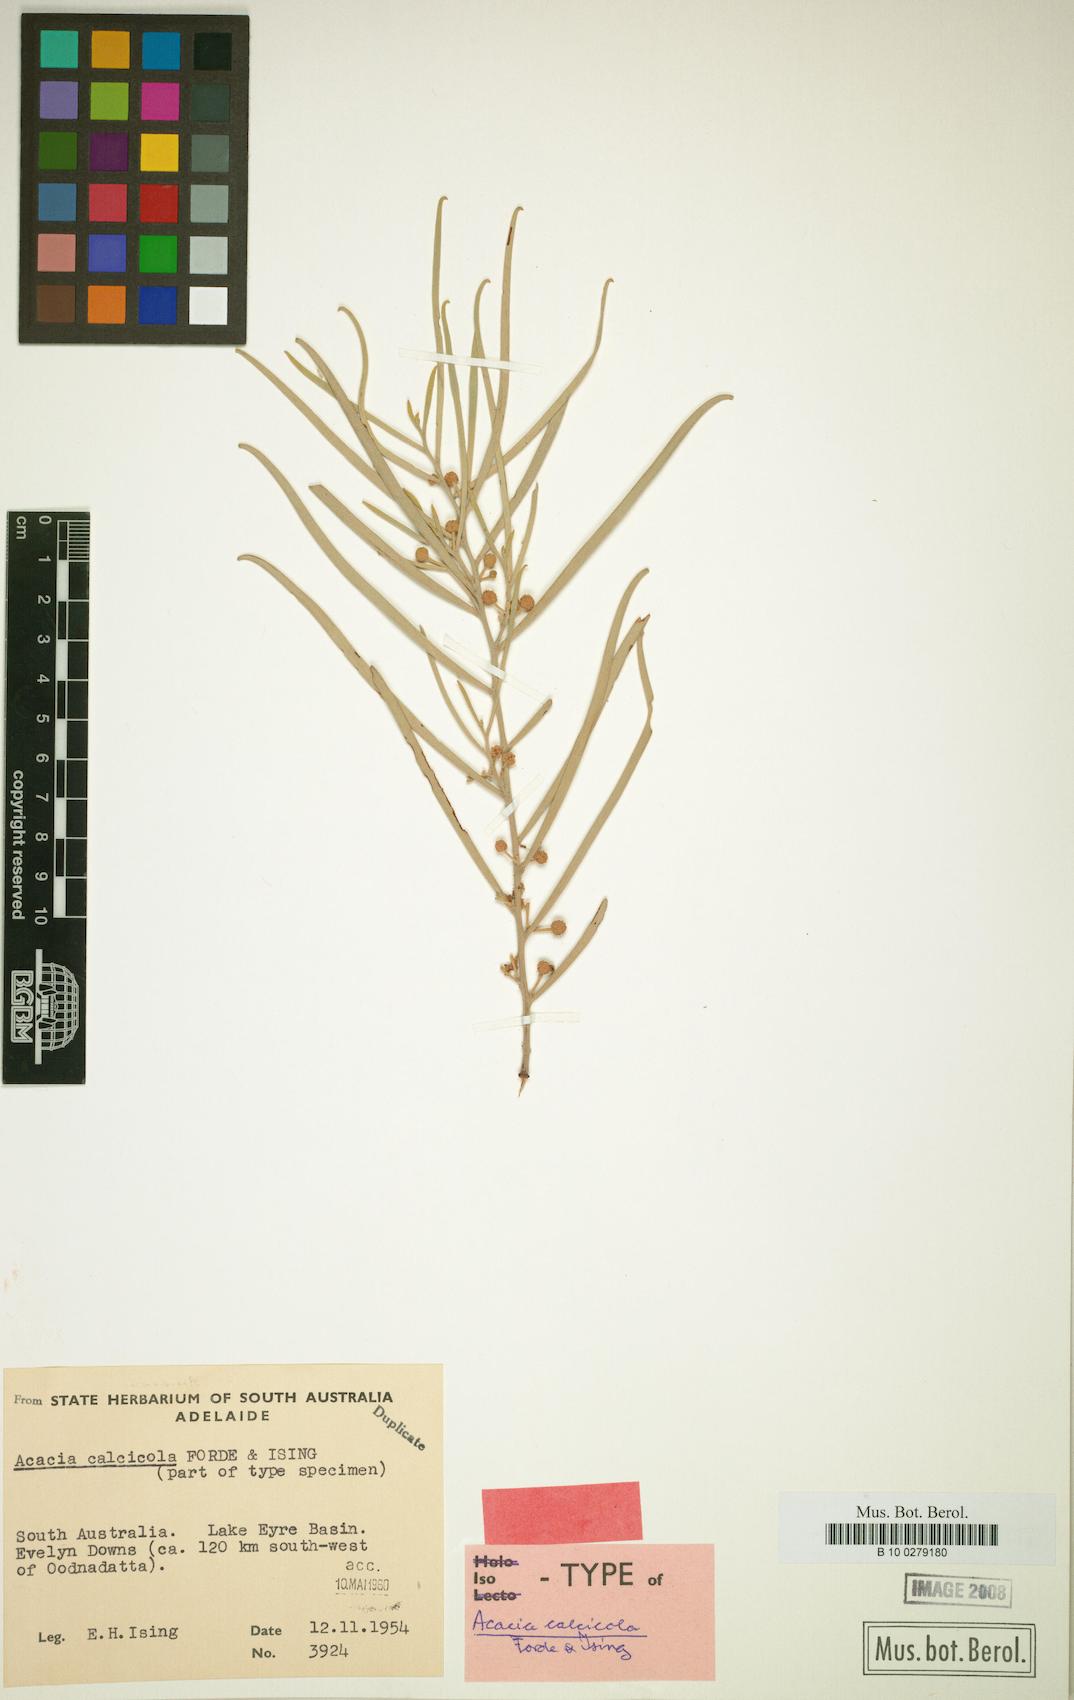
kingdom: Plantae
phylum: Tracheophyta
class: Magnoliopsida
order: Fabales
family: Fabaceae
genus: Acacia
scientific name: Acacia calcicola
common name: Northern myall
